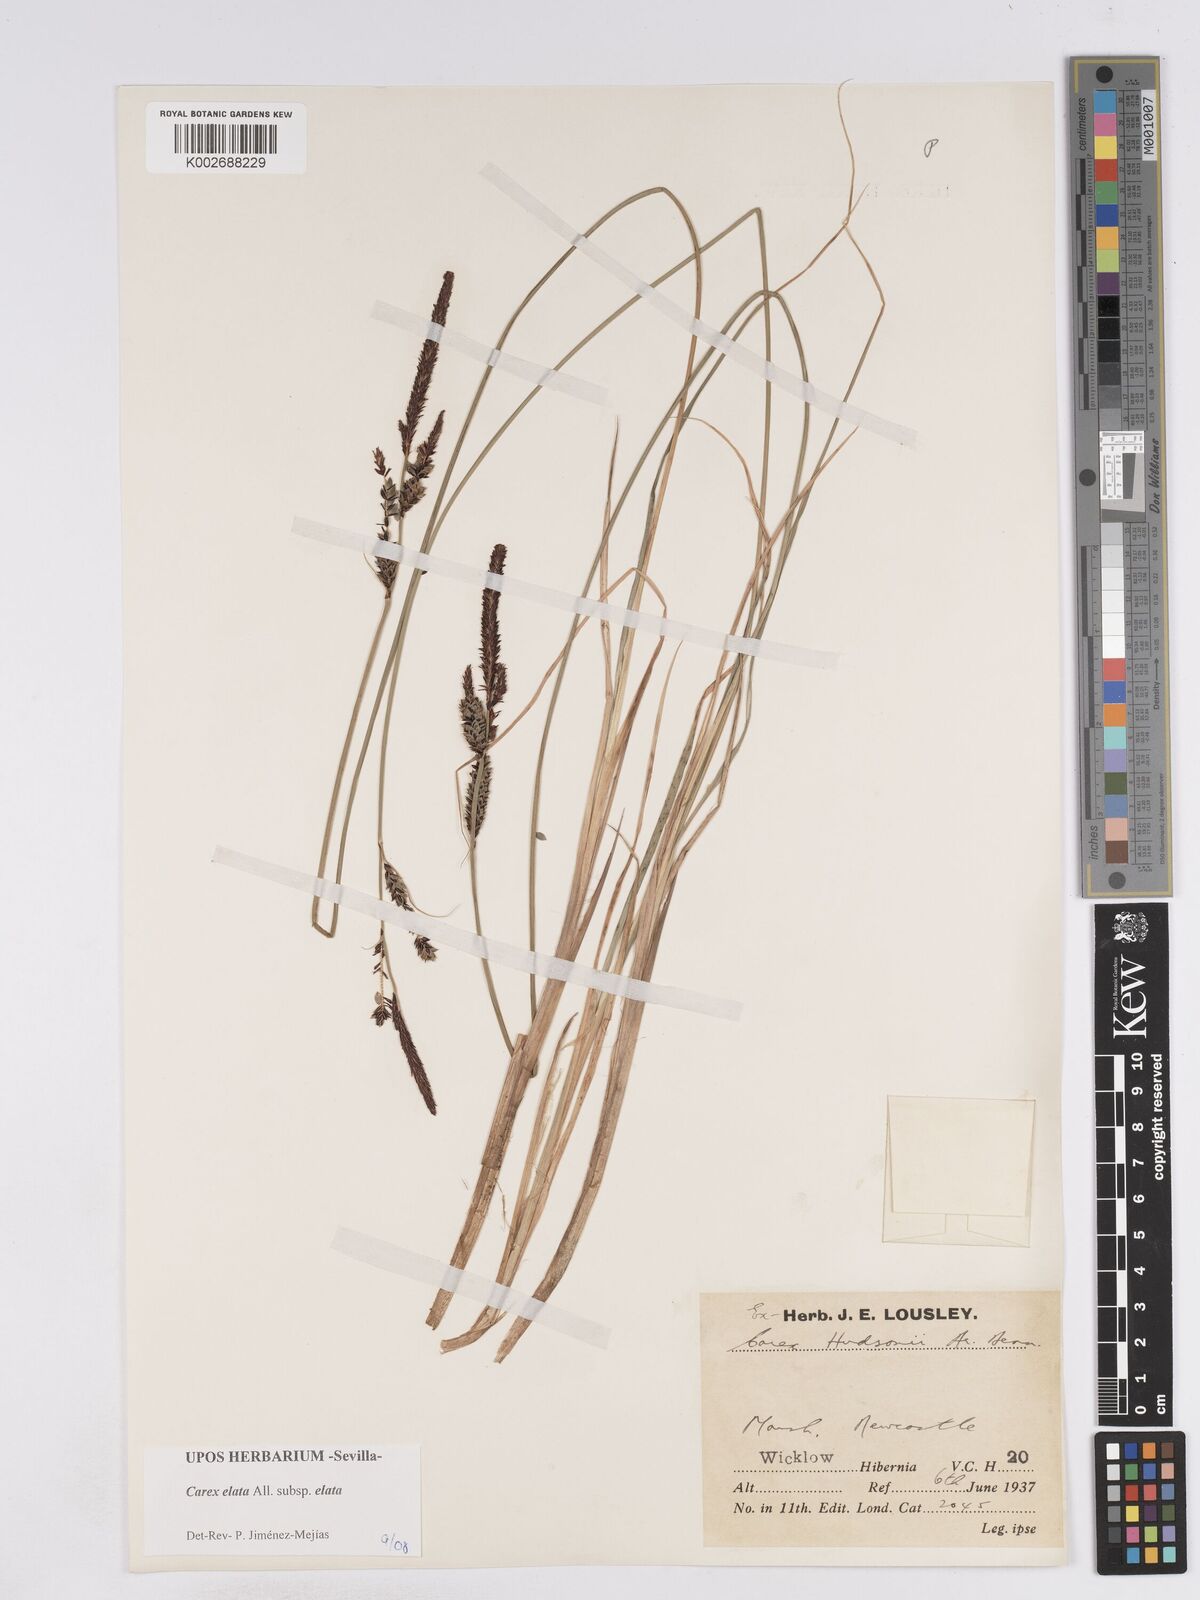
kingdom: Plantae
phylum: Tracheophyta
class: Liliopsida
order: Poales
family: Cyperaceae
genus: Carex
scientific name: Carex elata
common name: Tufted sedge
